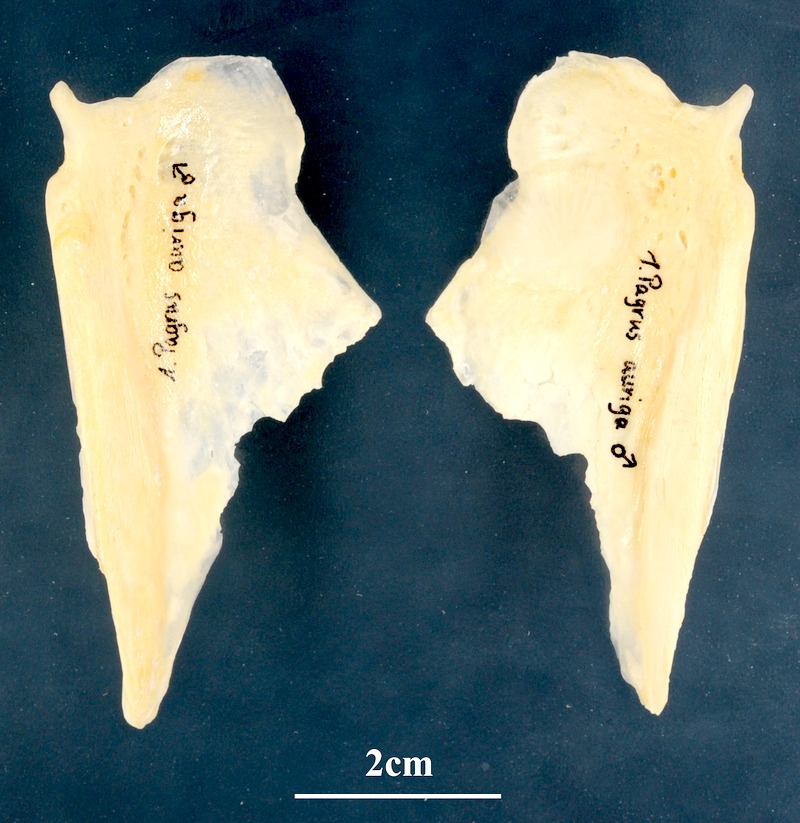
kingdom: Animalia
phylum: Chordata
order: Perciformes
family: Sparidae
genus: Pagrus
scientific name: Pagrus auriga
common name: Murudai
